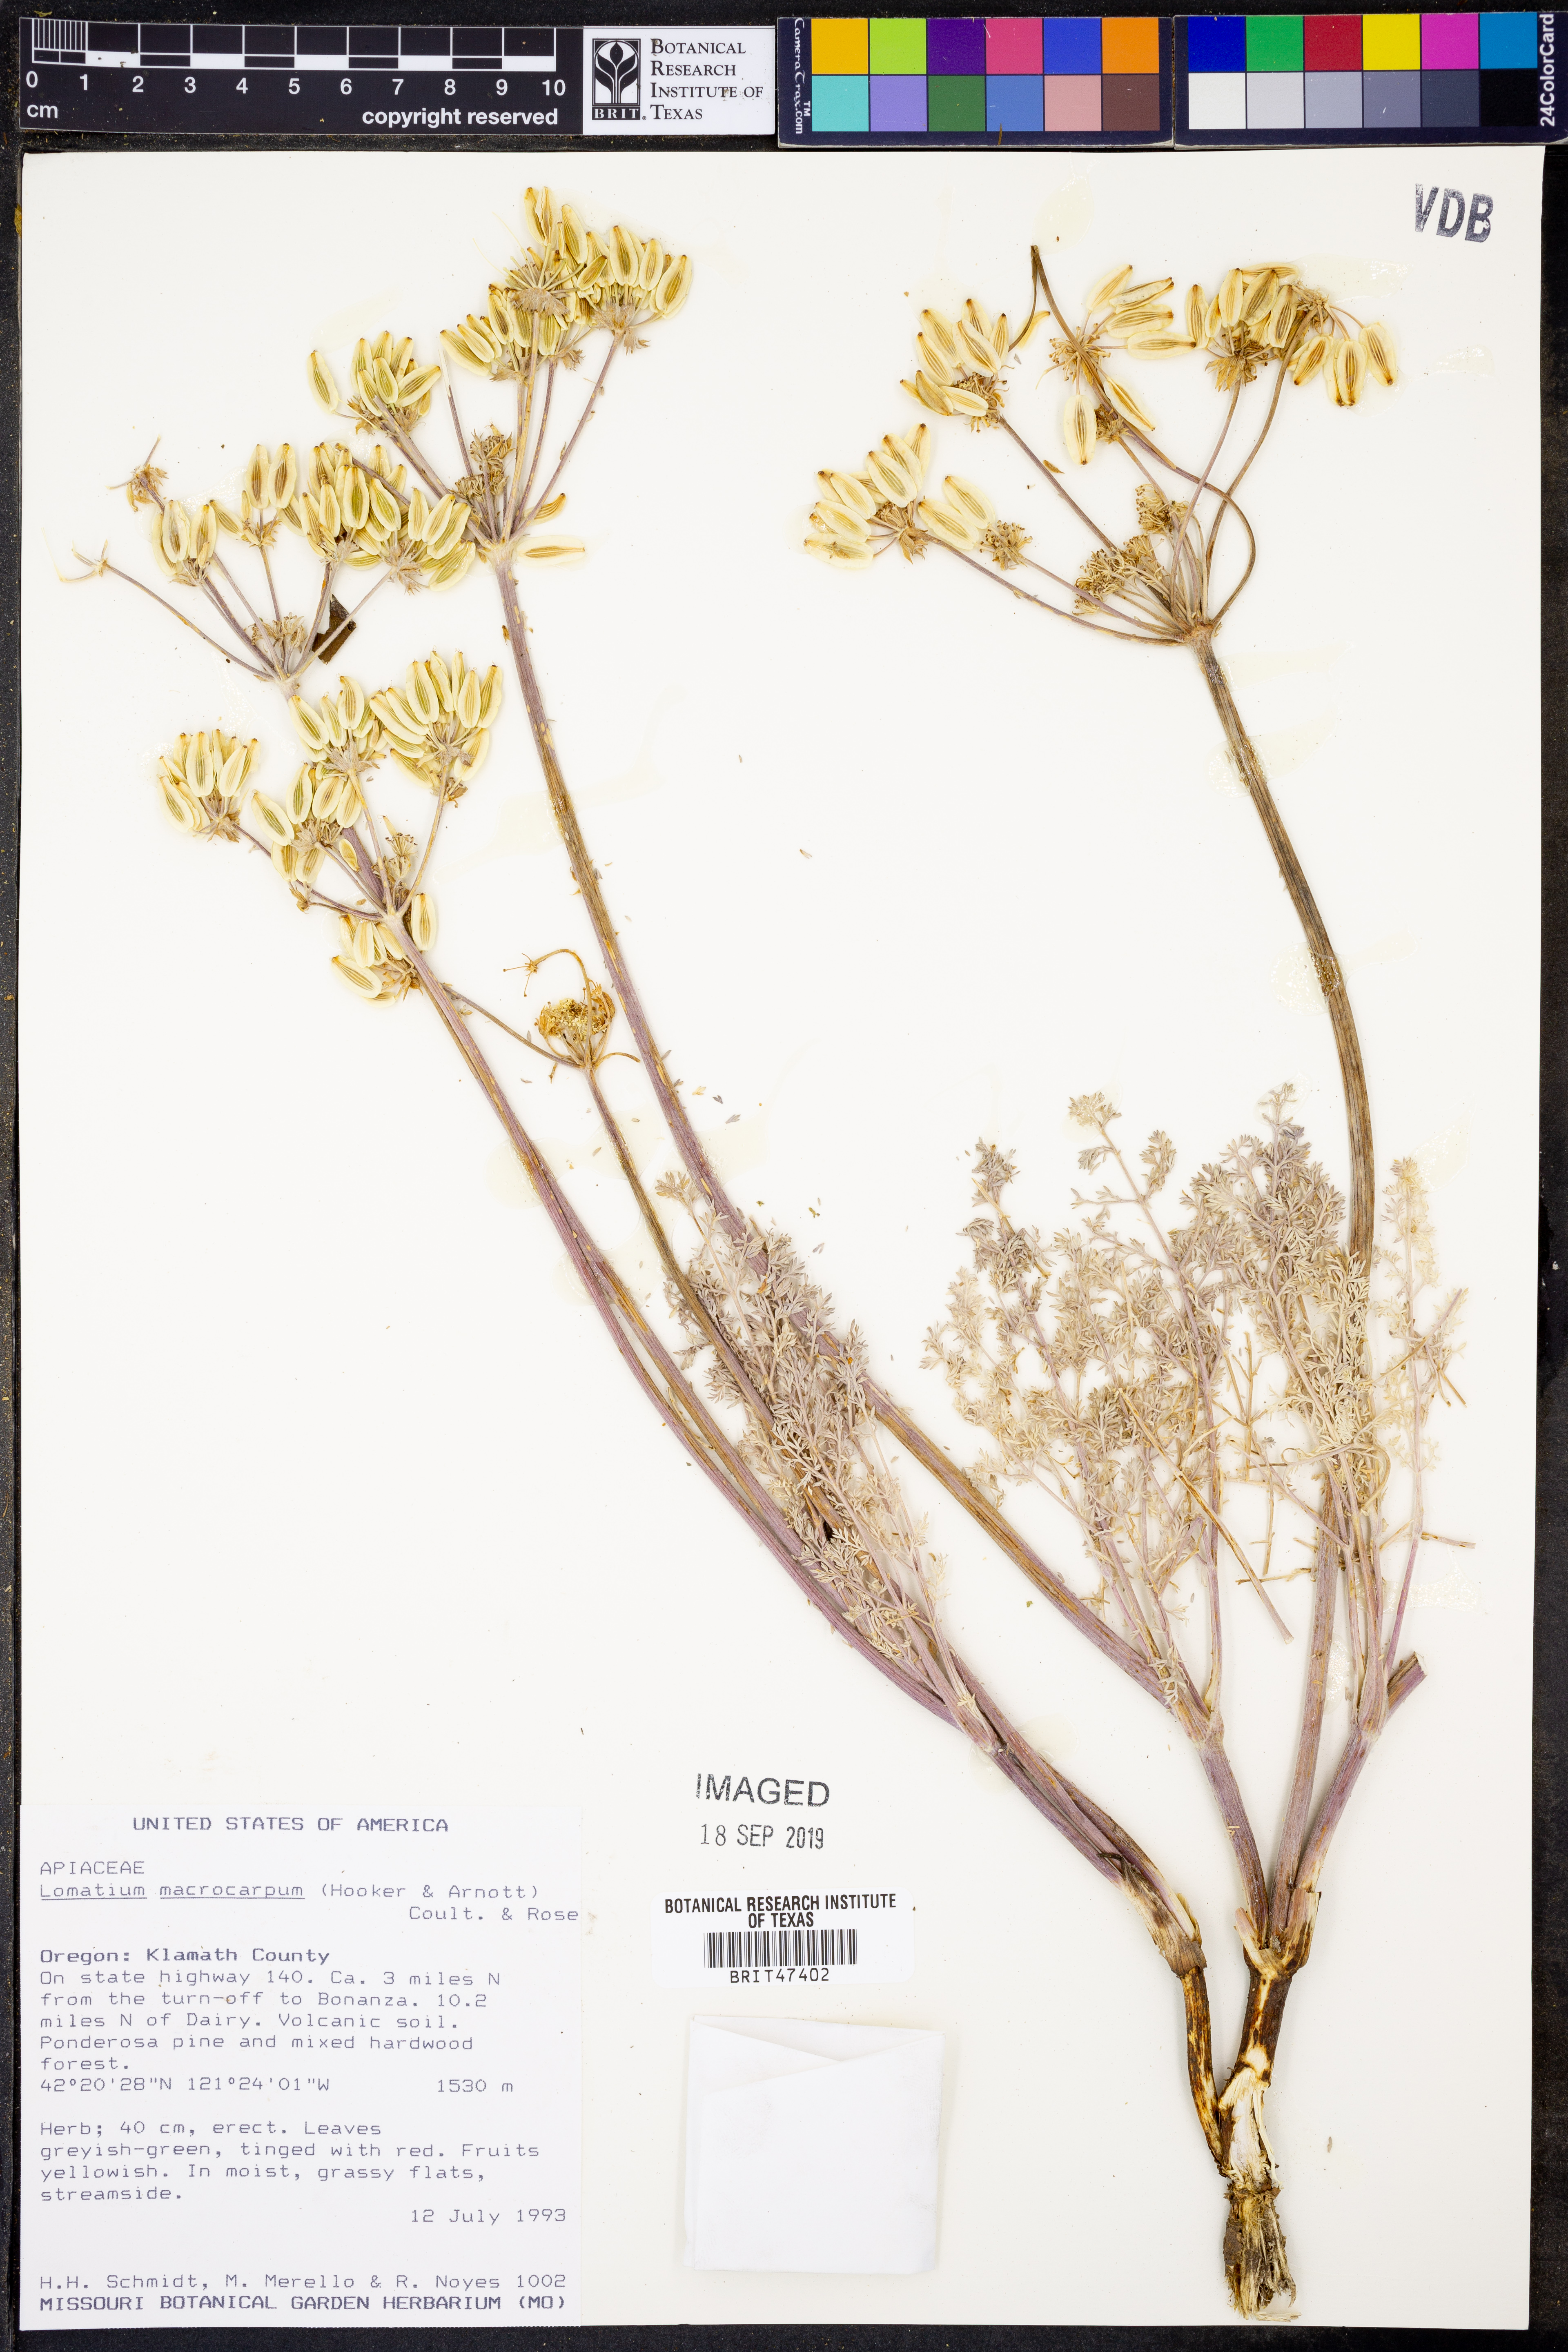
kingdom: Plantae
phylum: Tracheophyta
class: Magnoliopsida
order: Apiales
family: Apiaceae
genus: Lomatium
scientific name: Lomatium macrocarpum
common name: Big-seed biscuitroot
